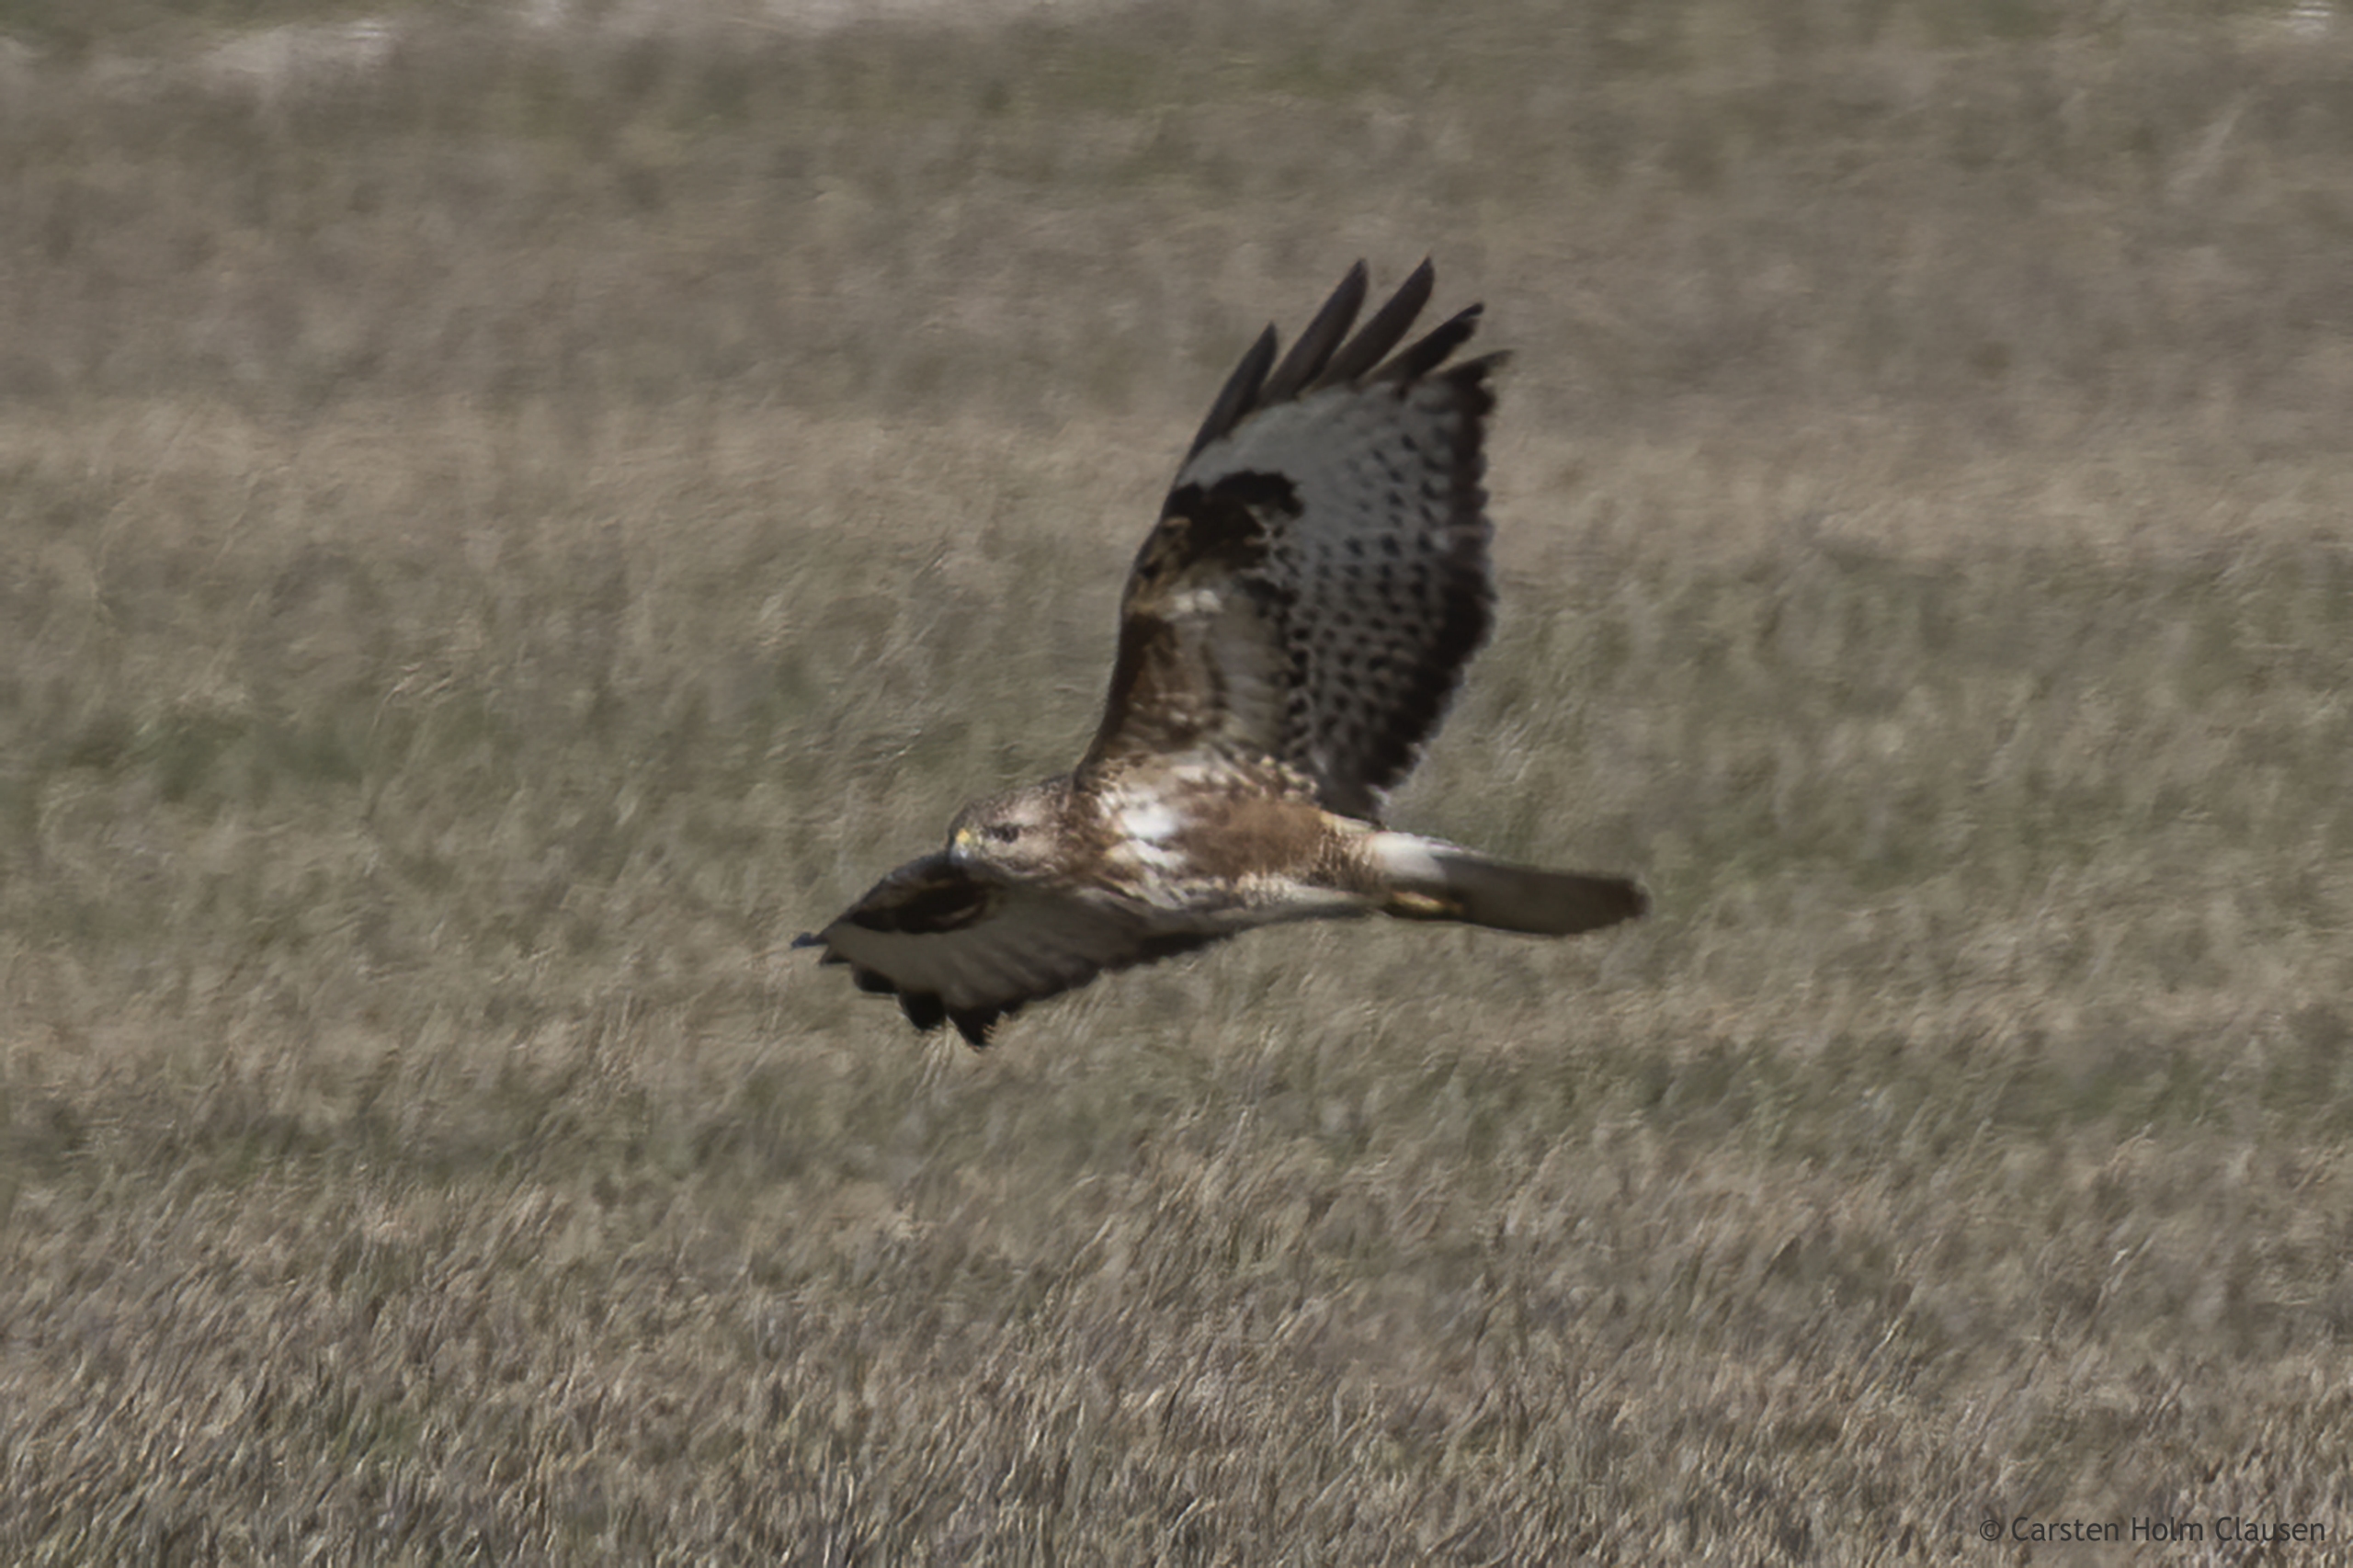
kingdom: Animalia
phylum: Chordata
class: Aves
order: Accipitriformes
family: Accipitridae
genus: Buteo
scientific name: Buteo buteo
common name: Musvåge
